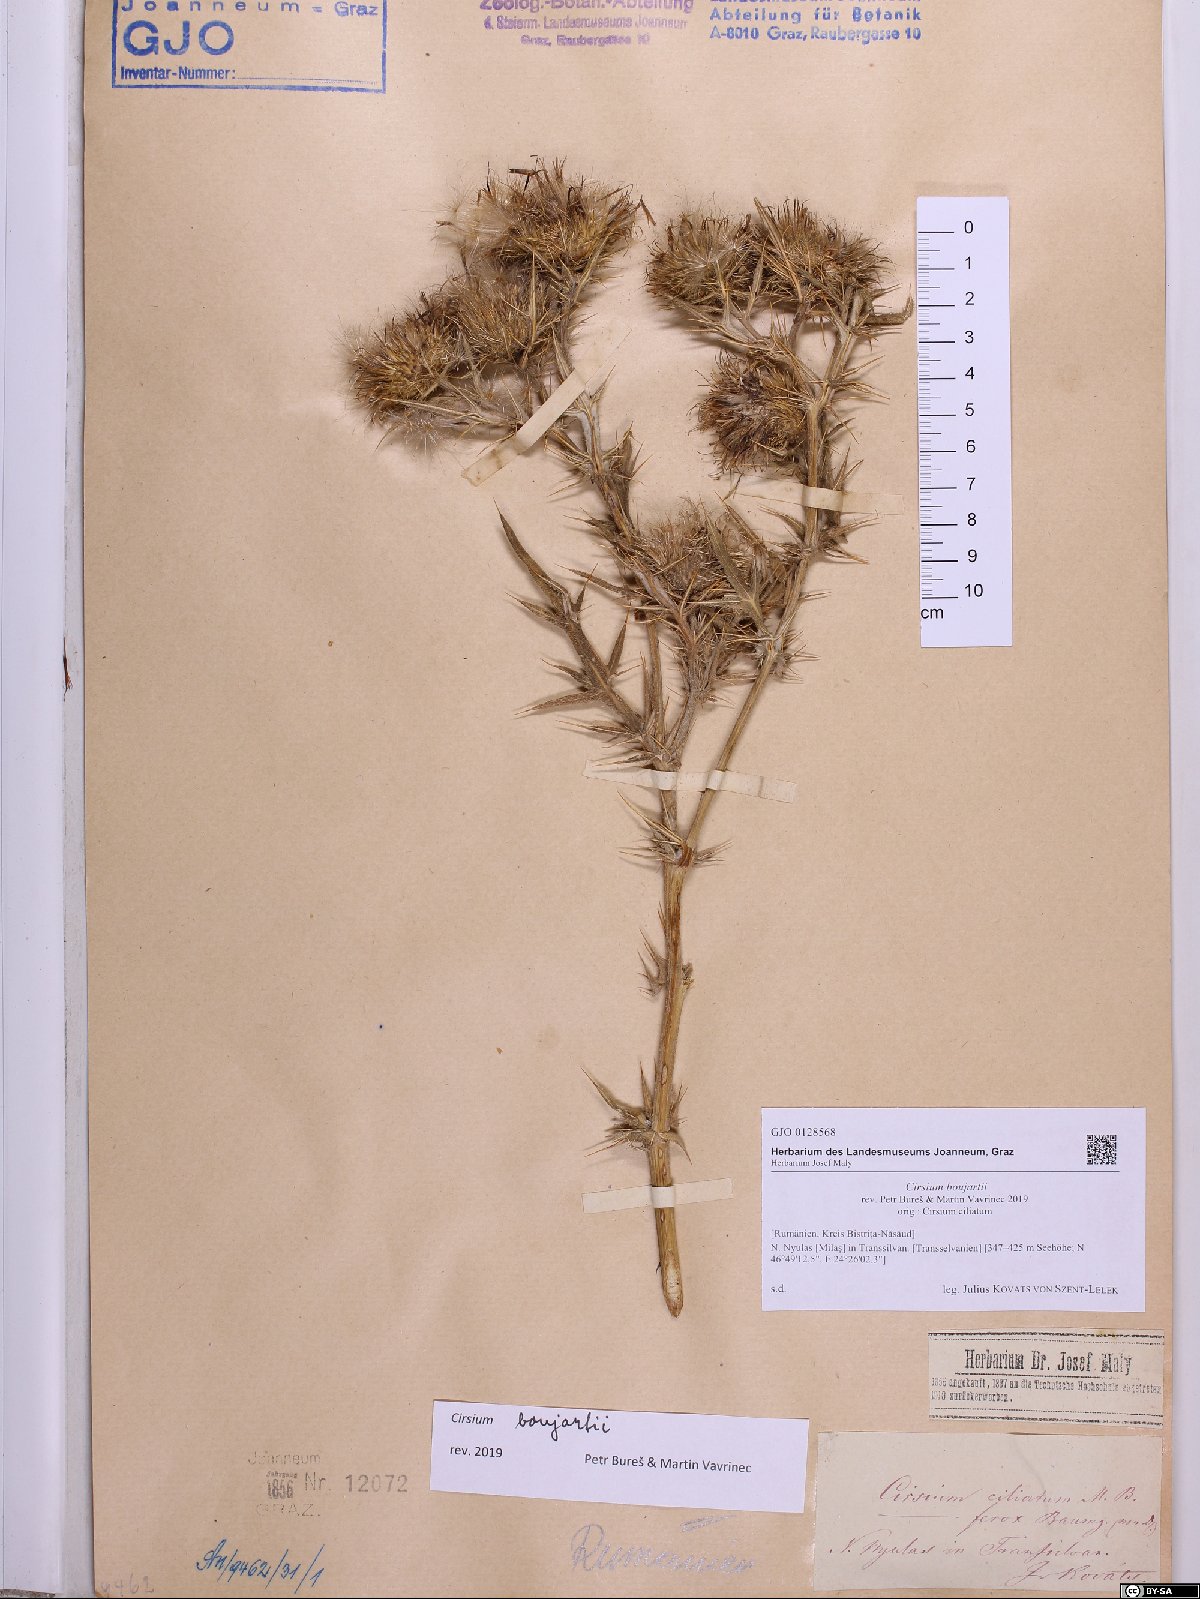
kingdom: Plantae
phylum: Tracheophyta
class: Magnoliopsida
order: Asterales
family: Asteraceae
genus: Lophiolepis
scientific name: Lophiolepis boujartii
